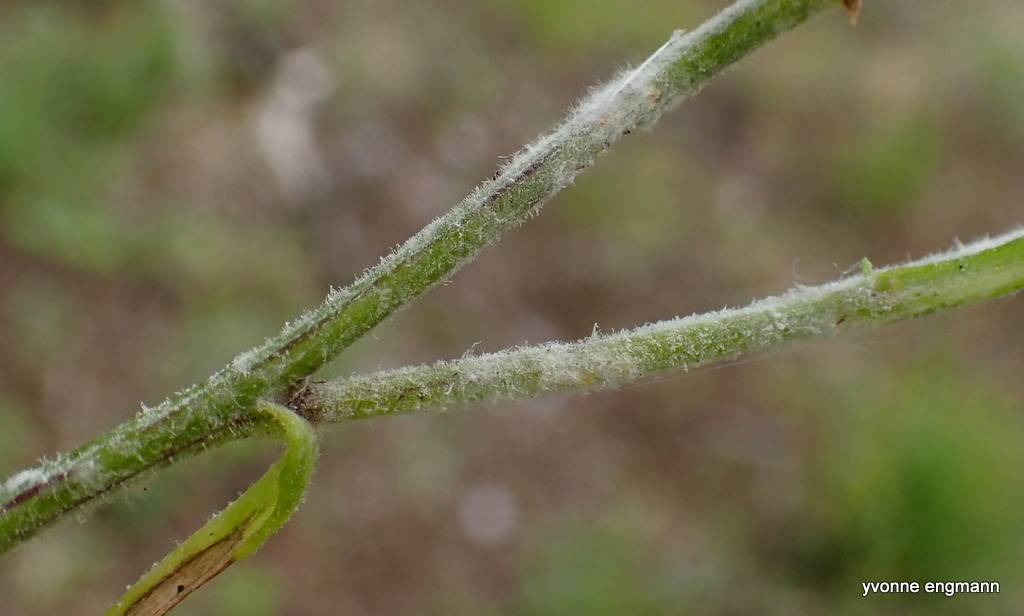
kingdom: Fungi
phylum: Ascomycota
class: Leotiomycetes
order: Helotiales
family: Erysiphaceae
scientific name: Erysiphaceae
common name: meldugfamilien
